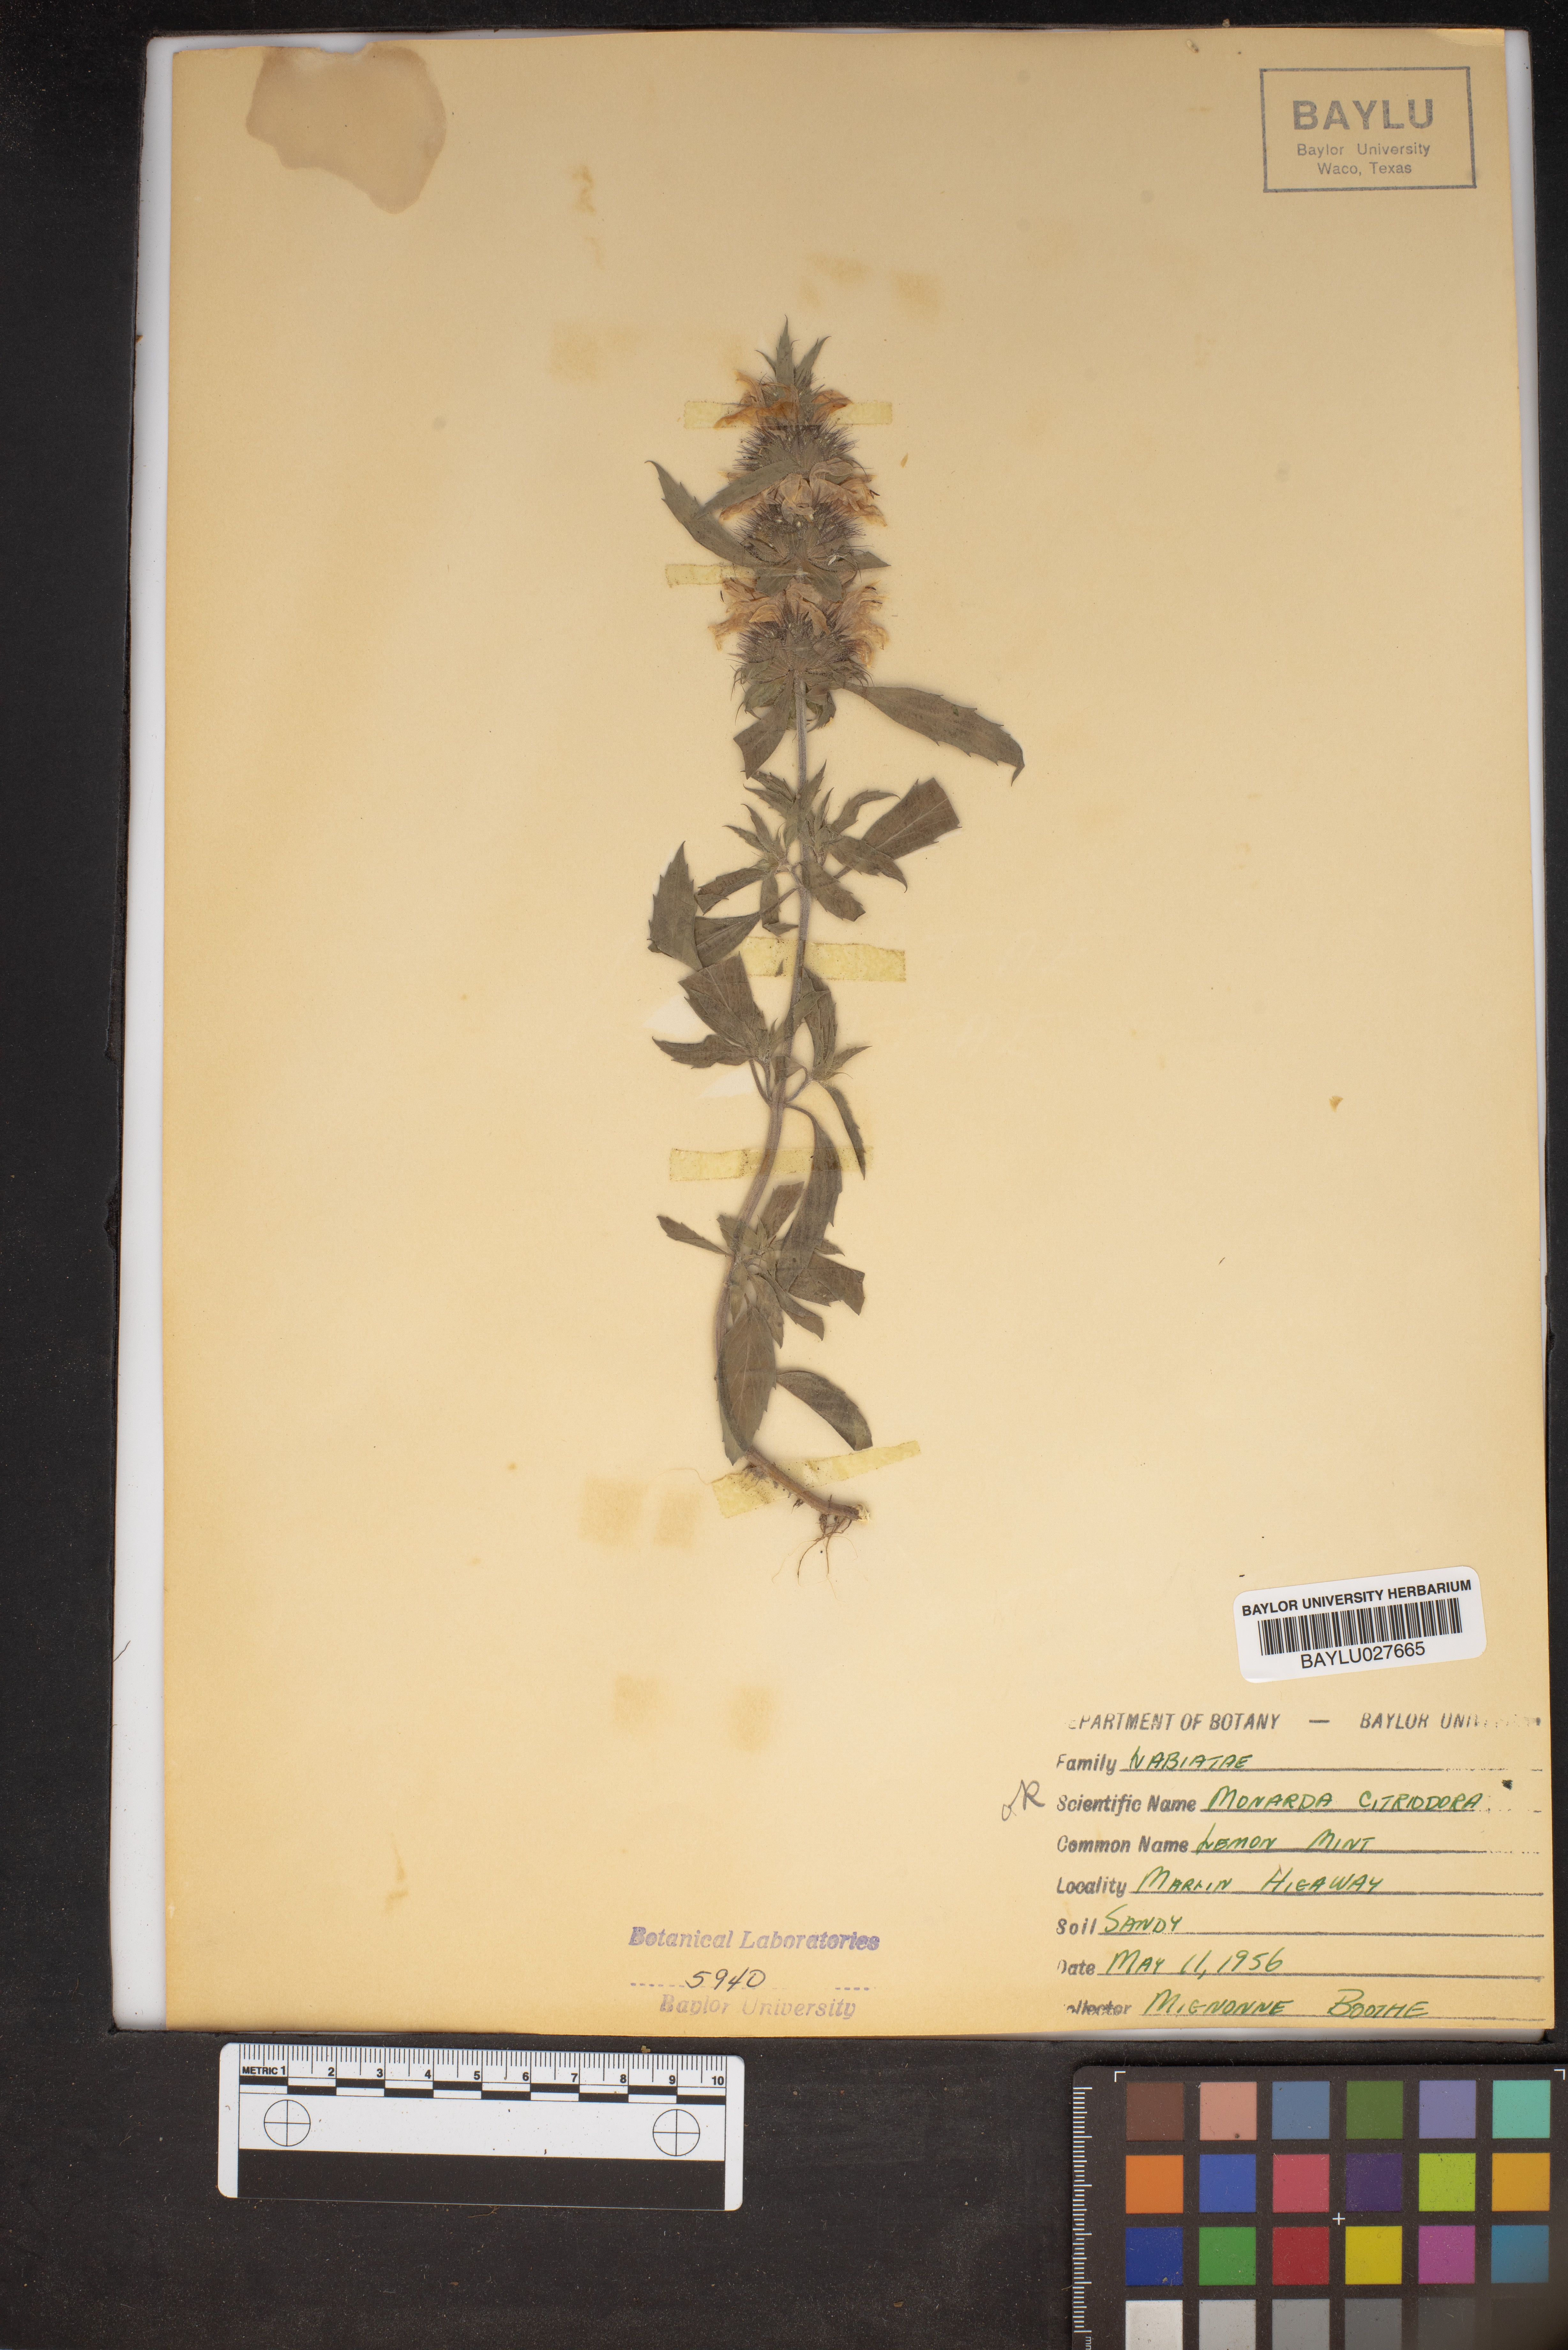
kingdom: Plantae
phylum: Tracheophyta
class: Magnoliopsida
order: Lamiales
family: Lamiaceae
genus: Monarda
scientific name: Monarda citriodora
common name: Lemon beebalm
